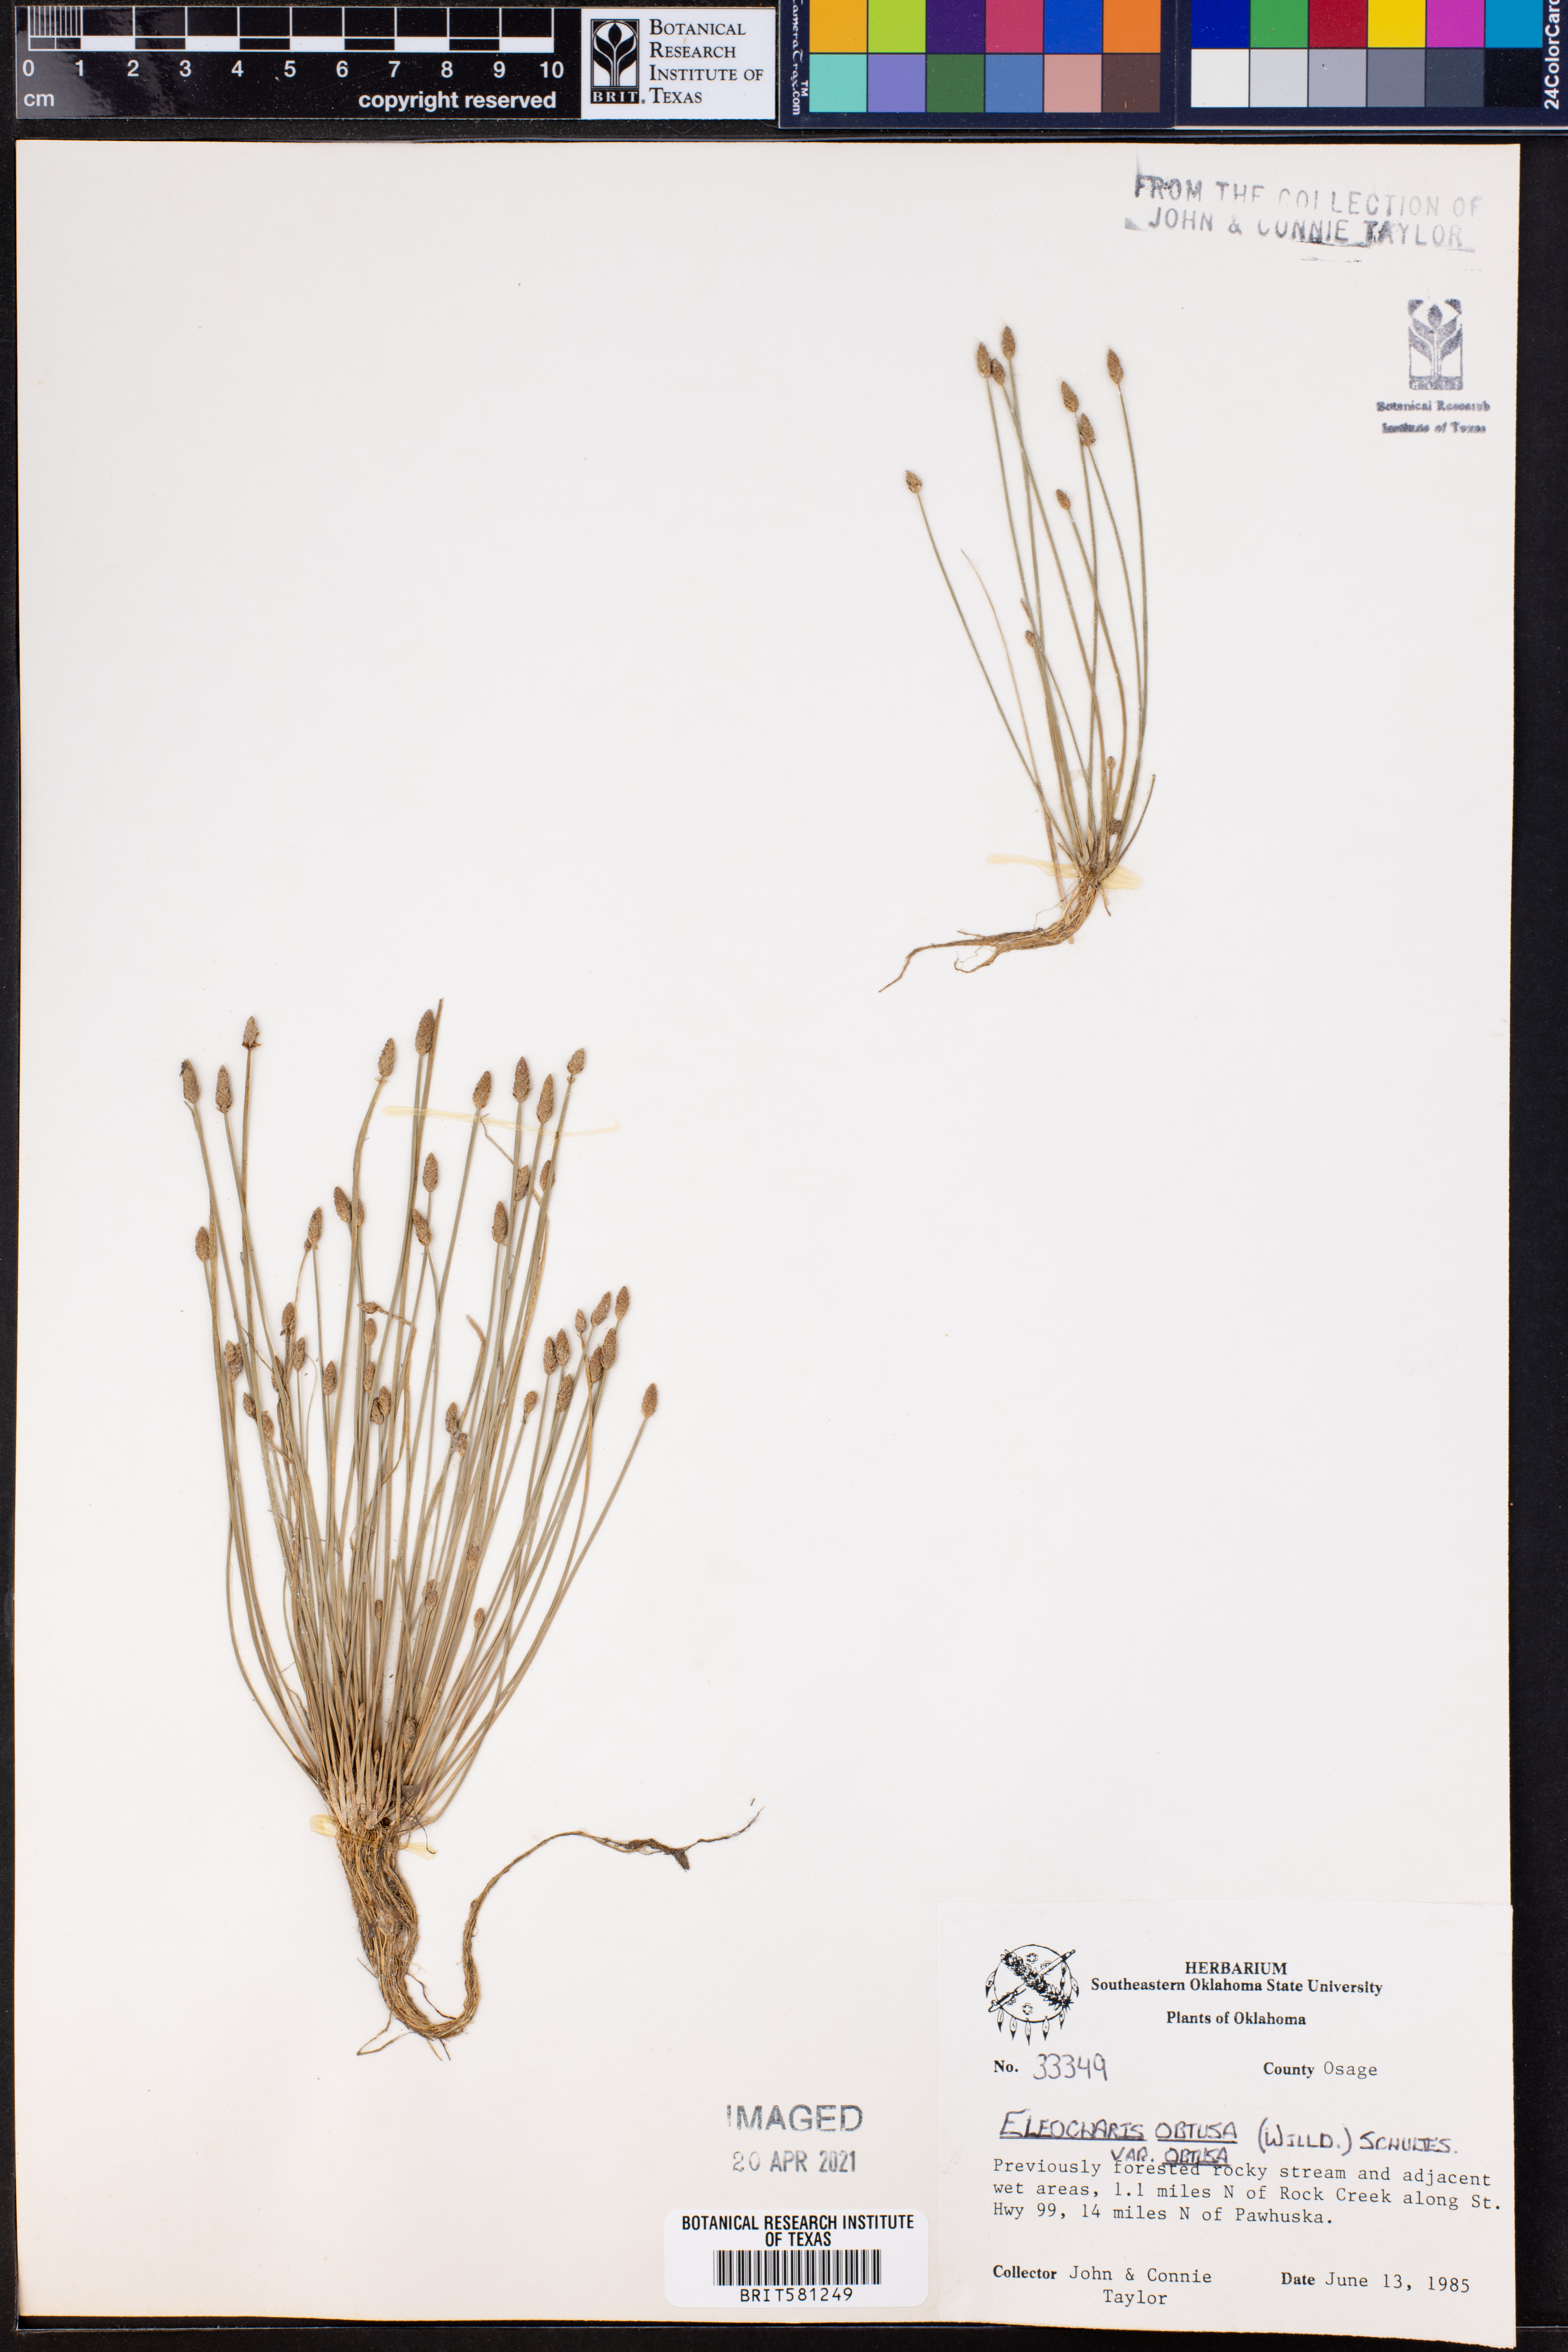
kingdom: Plantae
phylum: Tracheophyta
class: Liliopsida
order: Poales
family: Cyperaceae
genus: Eleocharis
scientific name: Eleocharis obtusa
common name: Blunt spikerush
